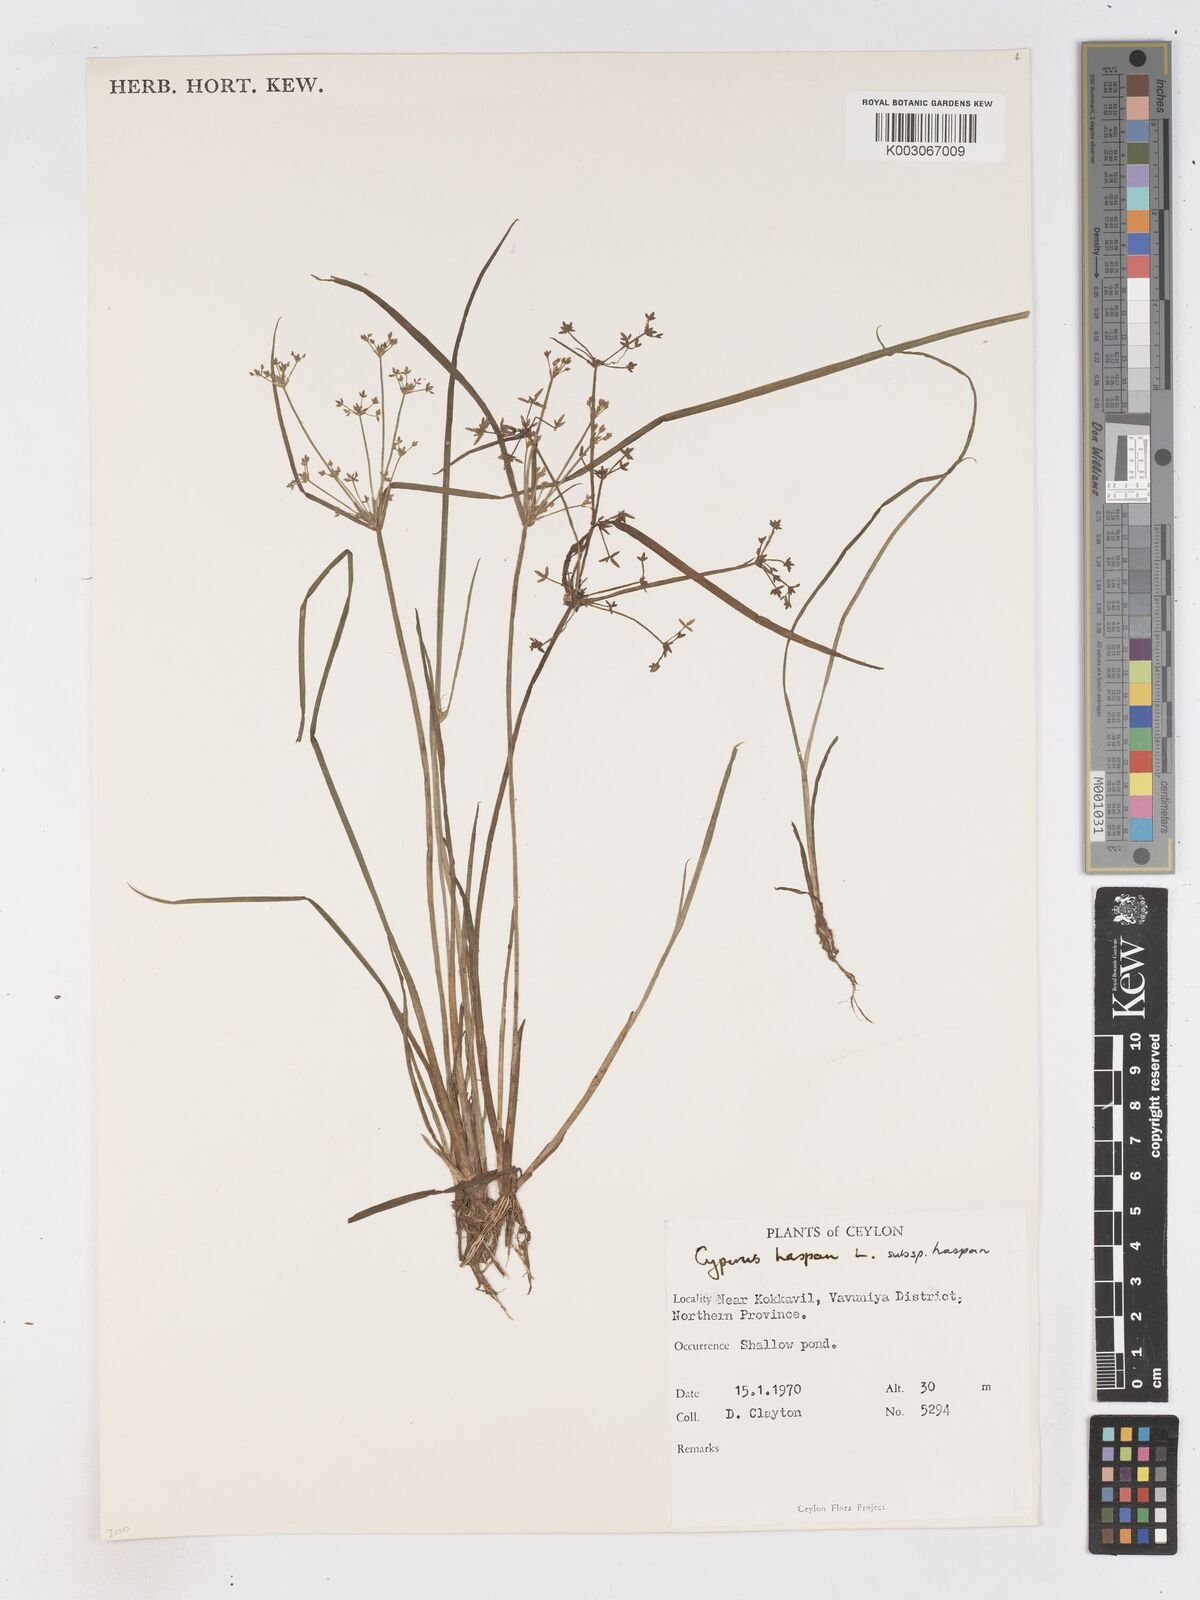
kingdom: Plantae
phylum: Tracheophyta
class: Liliopsida
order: Poales
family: Cyperaceae
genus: Cyperus
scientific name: Cyperus haspan
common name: Haspan flatsedge
